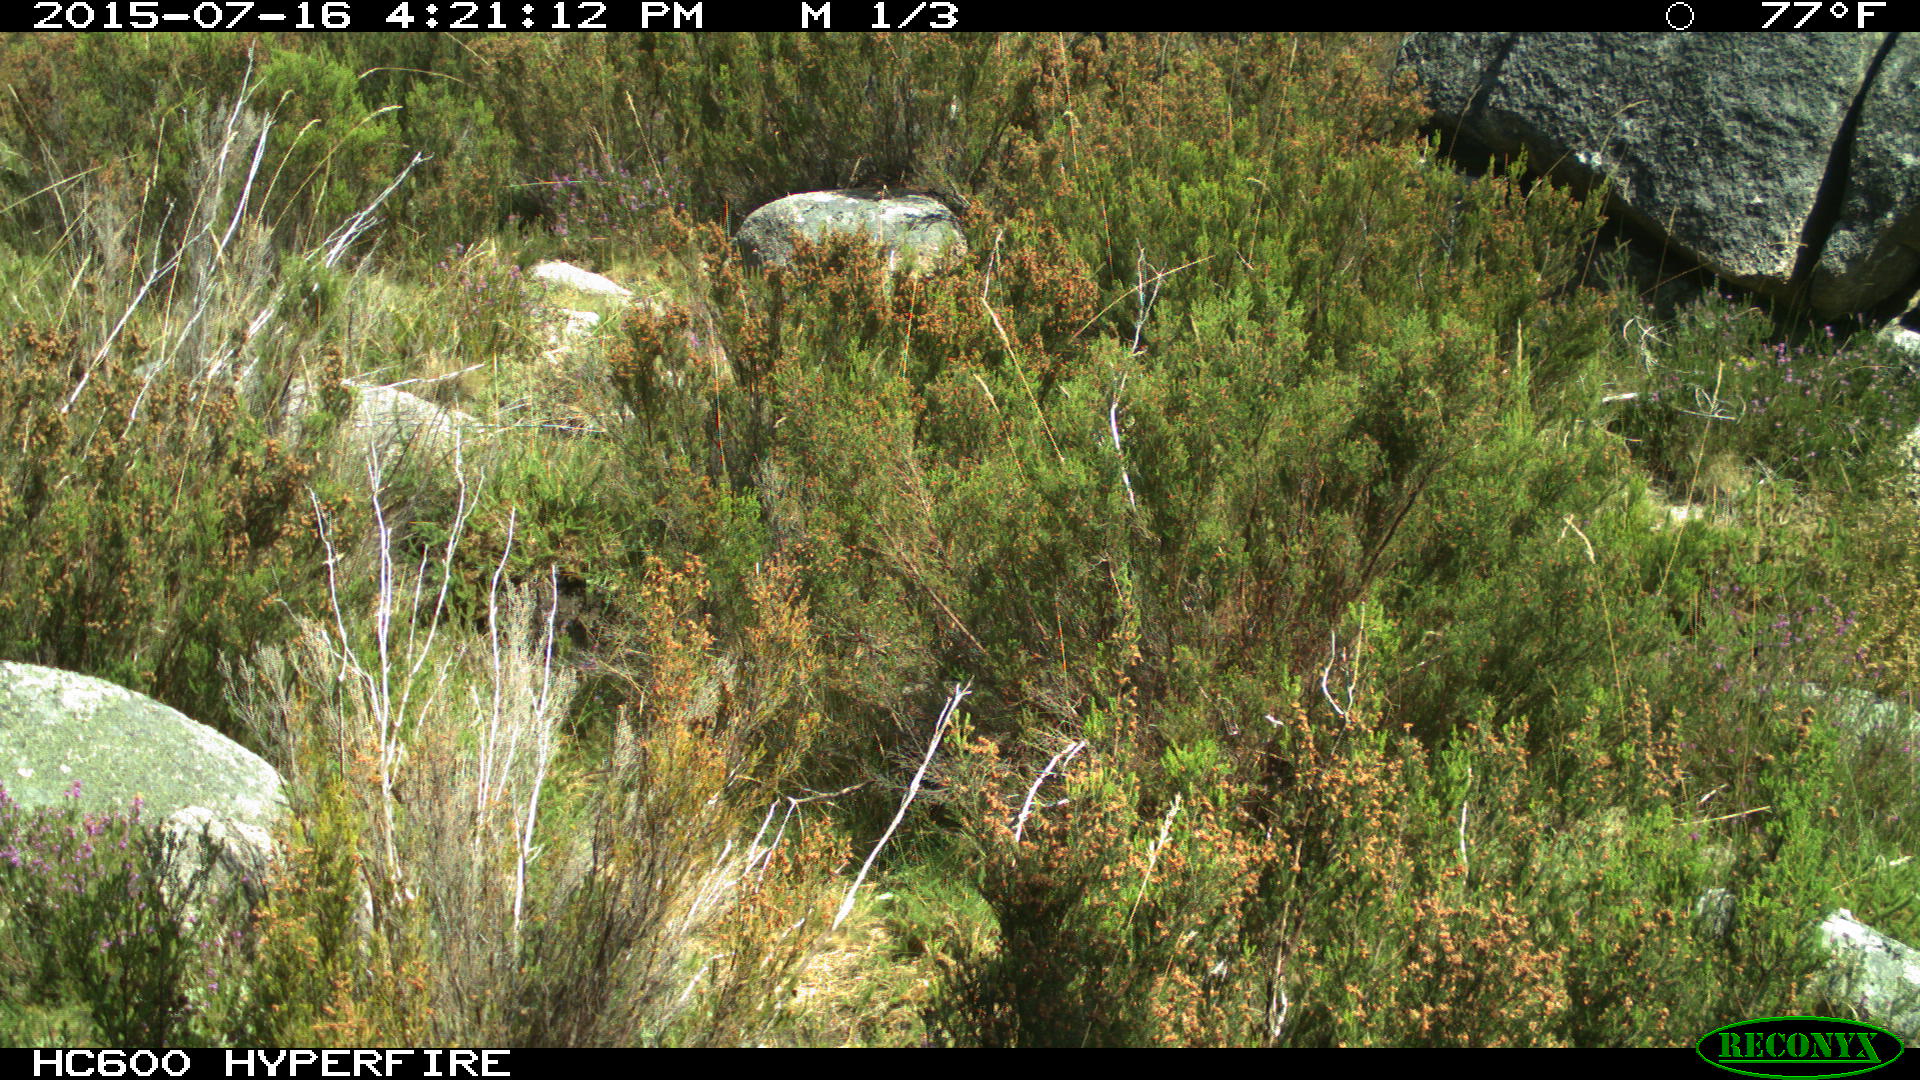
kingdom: Animalia
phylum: Chordata
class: Mammalia
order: Artiodactyla
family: Bovidae
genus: Bos
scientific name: Bos taurus
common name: Domesticated cattle
